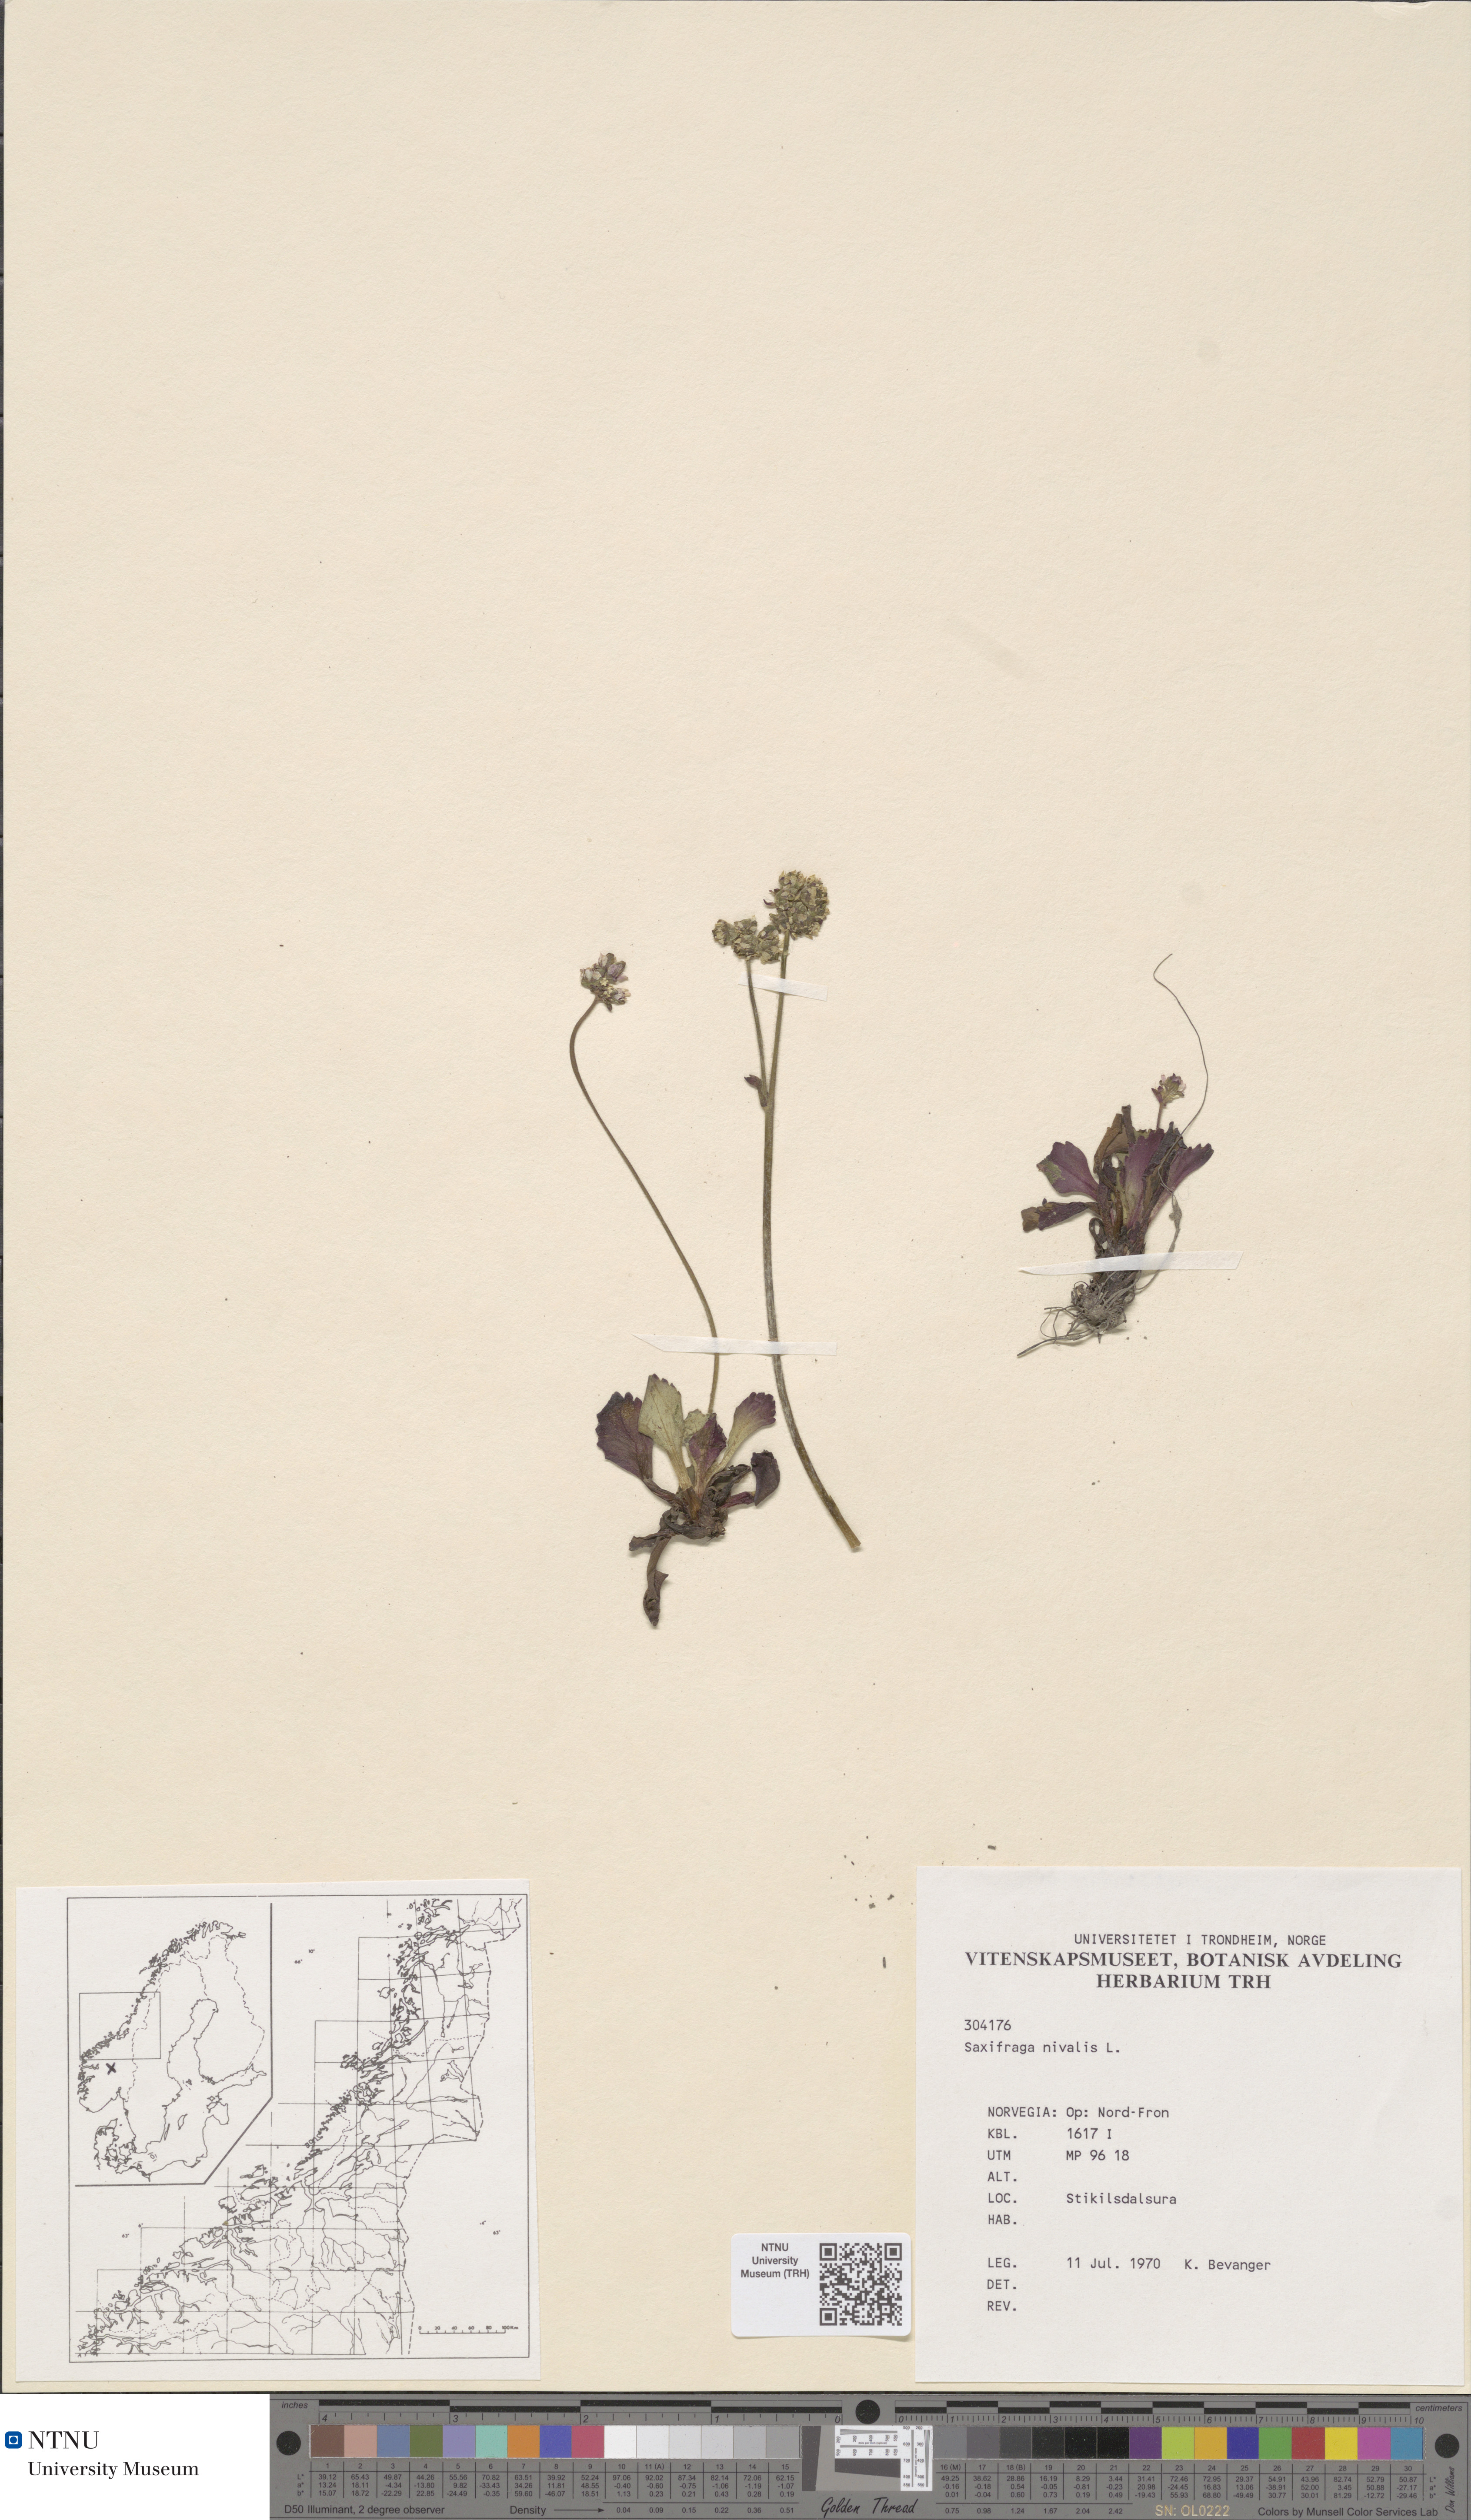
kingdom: Plantae
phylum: Tracheophyta
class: Magnoliopsida
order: Saxifragales
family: Saxifragaceae
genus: Micranthes
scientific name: Micranthes nivalis
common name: Alpine saxifrage
